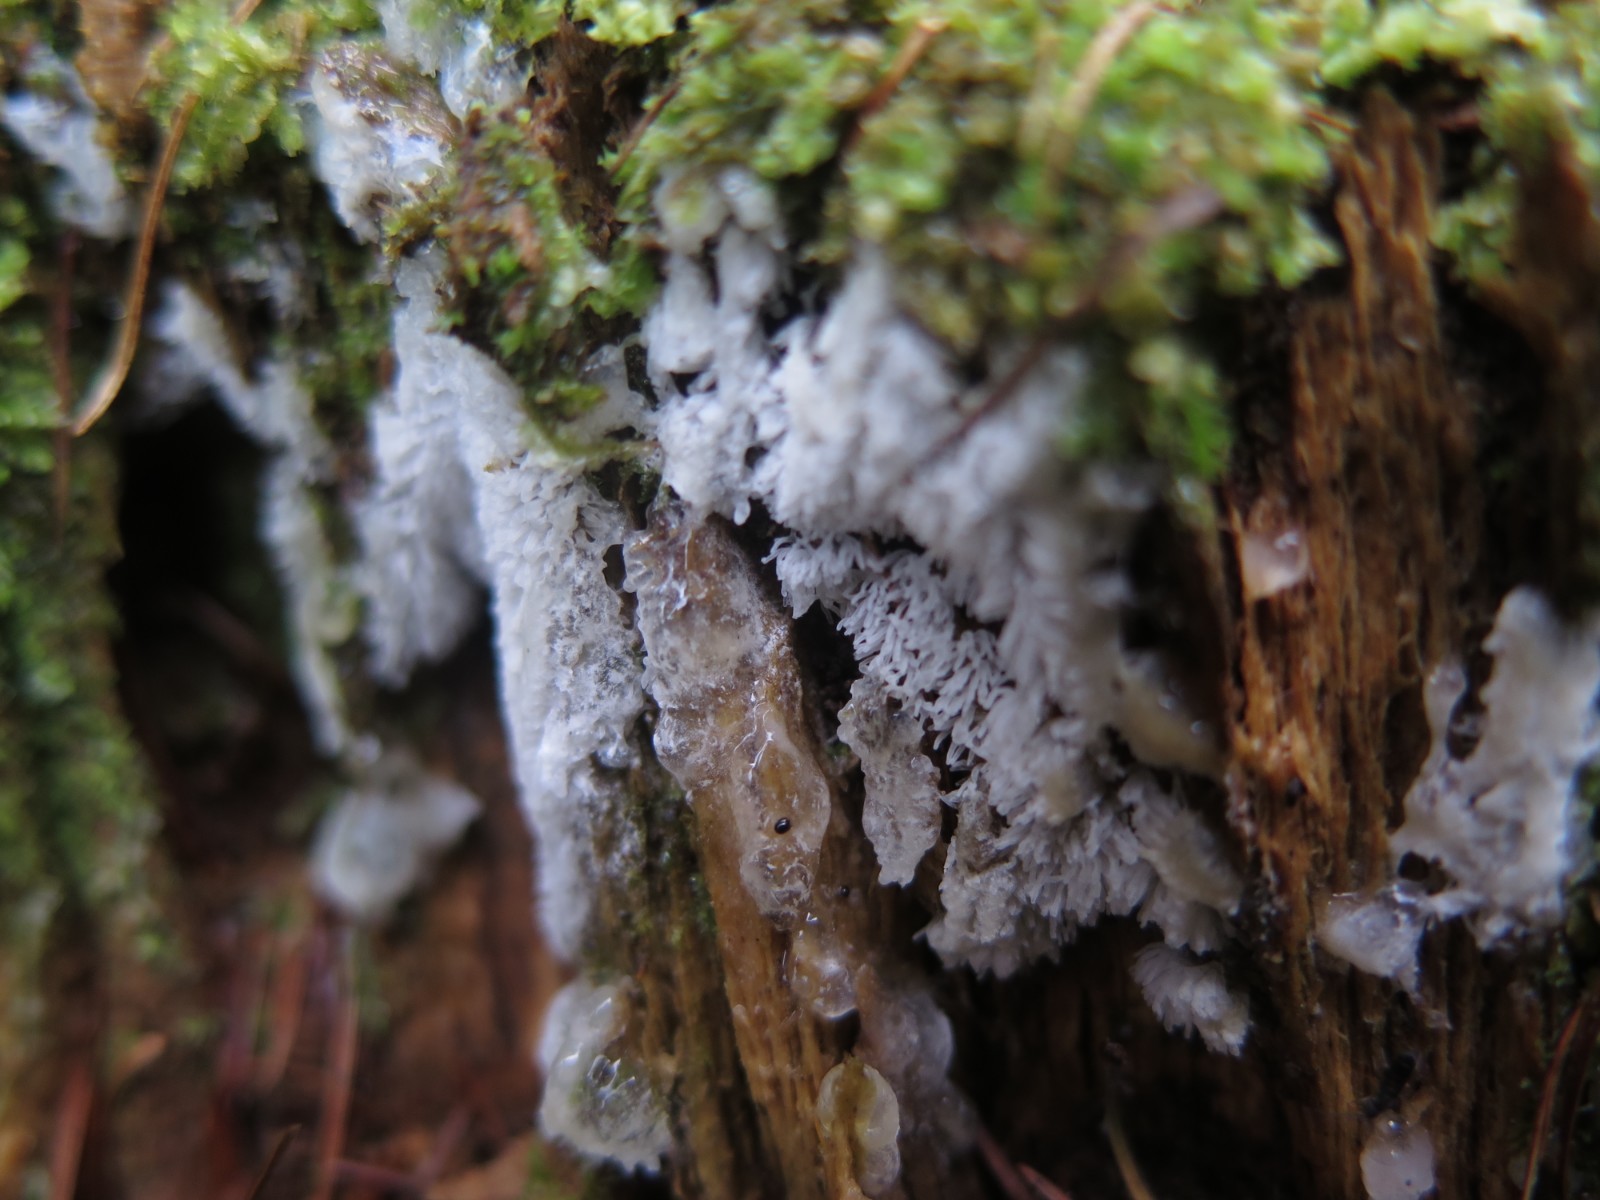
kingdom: Protozoa
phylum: Mycetozoa
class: Protosteliomycetes
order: Ceratiomyxales
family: Ceratiomyxaceae
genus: Ceratiomyxa
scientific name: Ceratiomyxa fruticulosa
